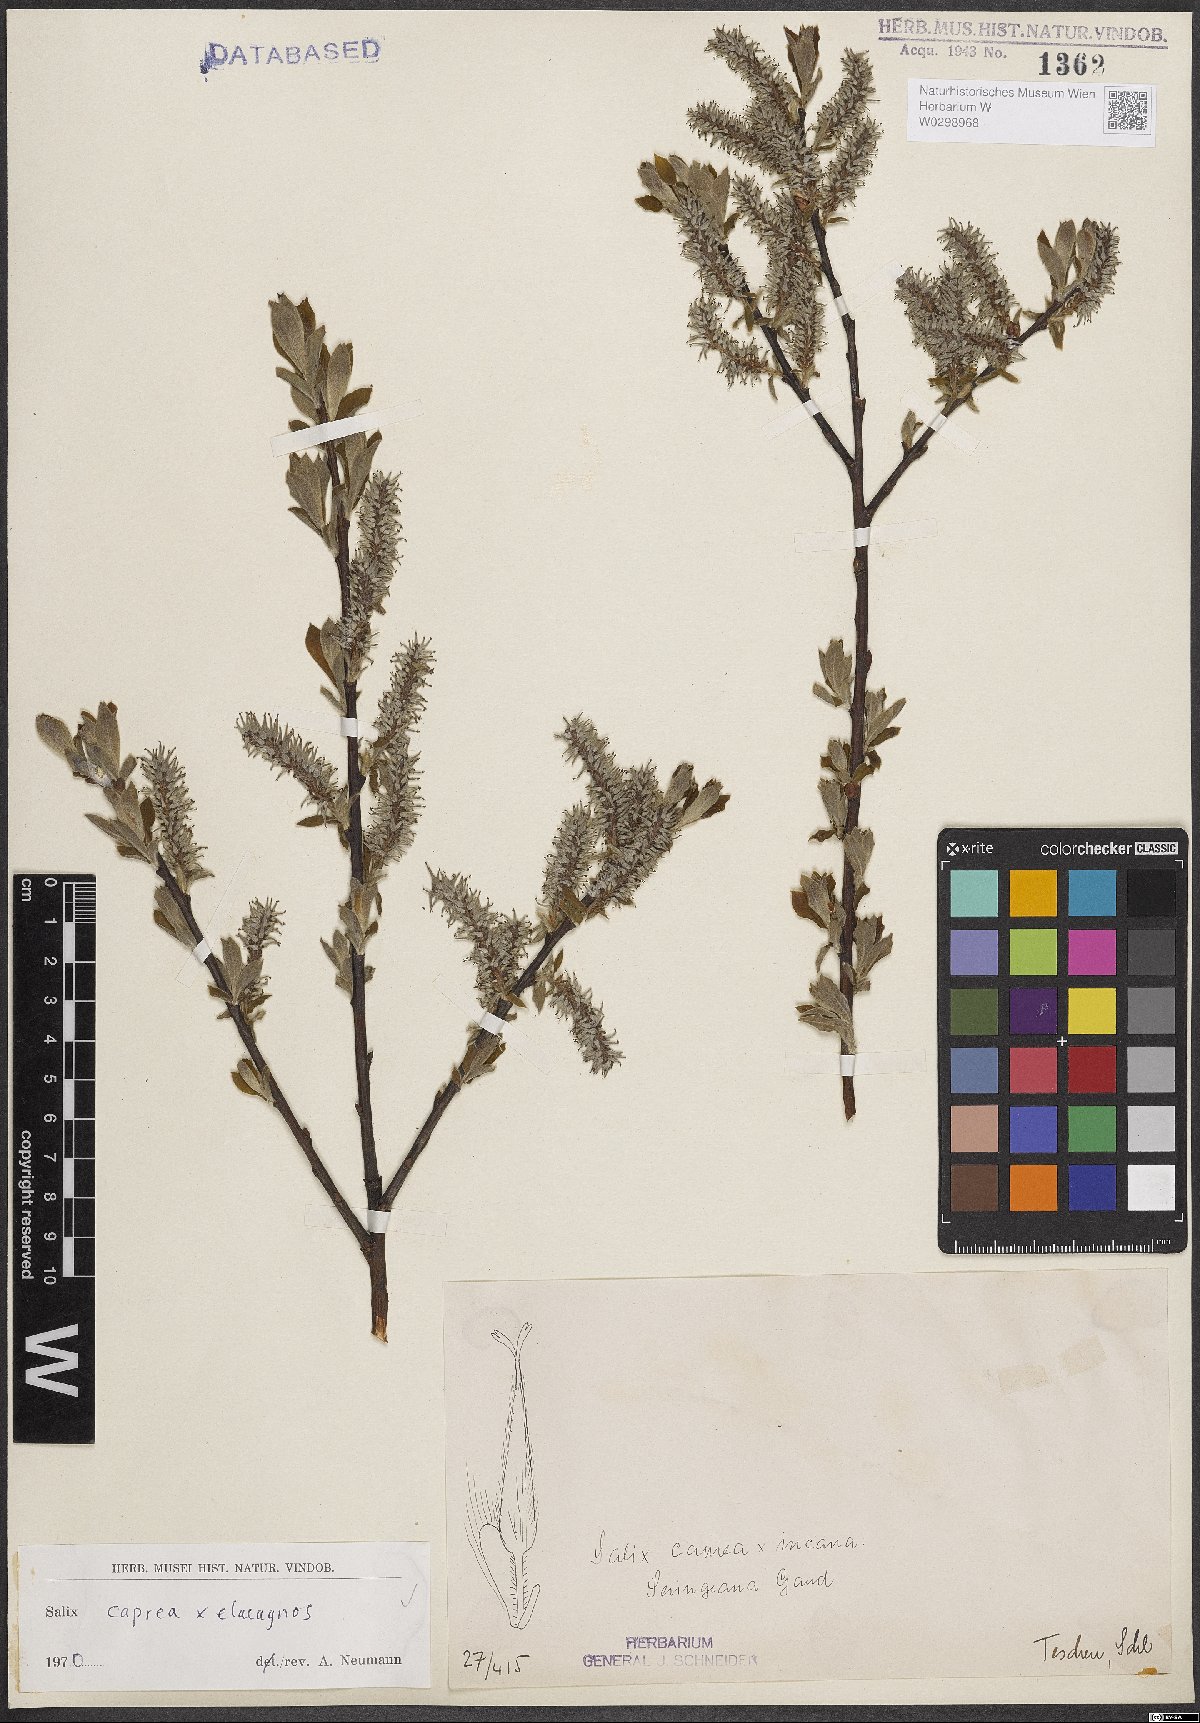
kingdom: Plantae
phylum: Tracheophyta
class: Magnoliopsida
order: Malpighiales
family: Salicaceae
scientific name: Salicaceae
